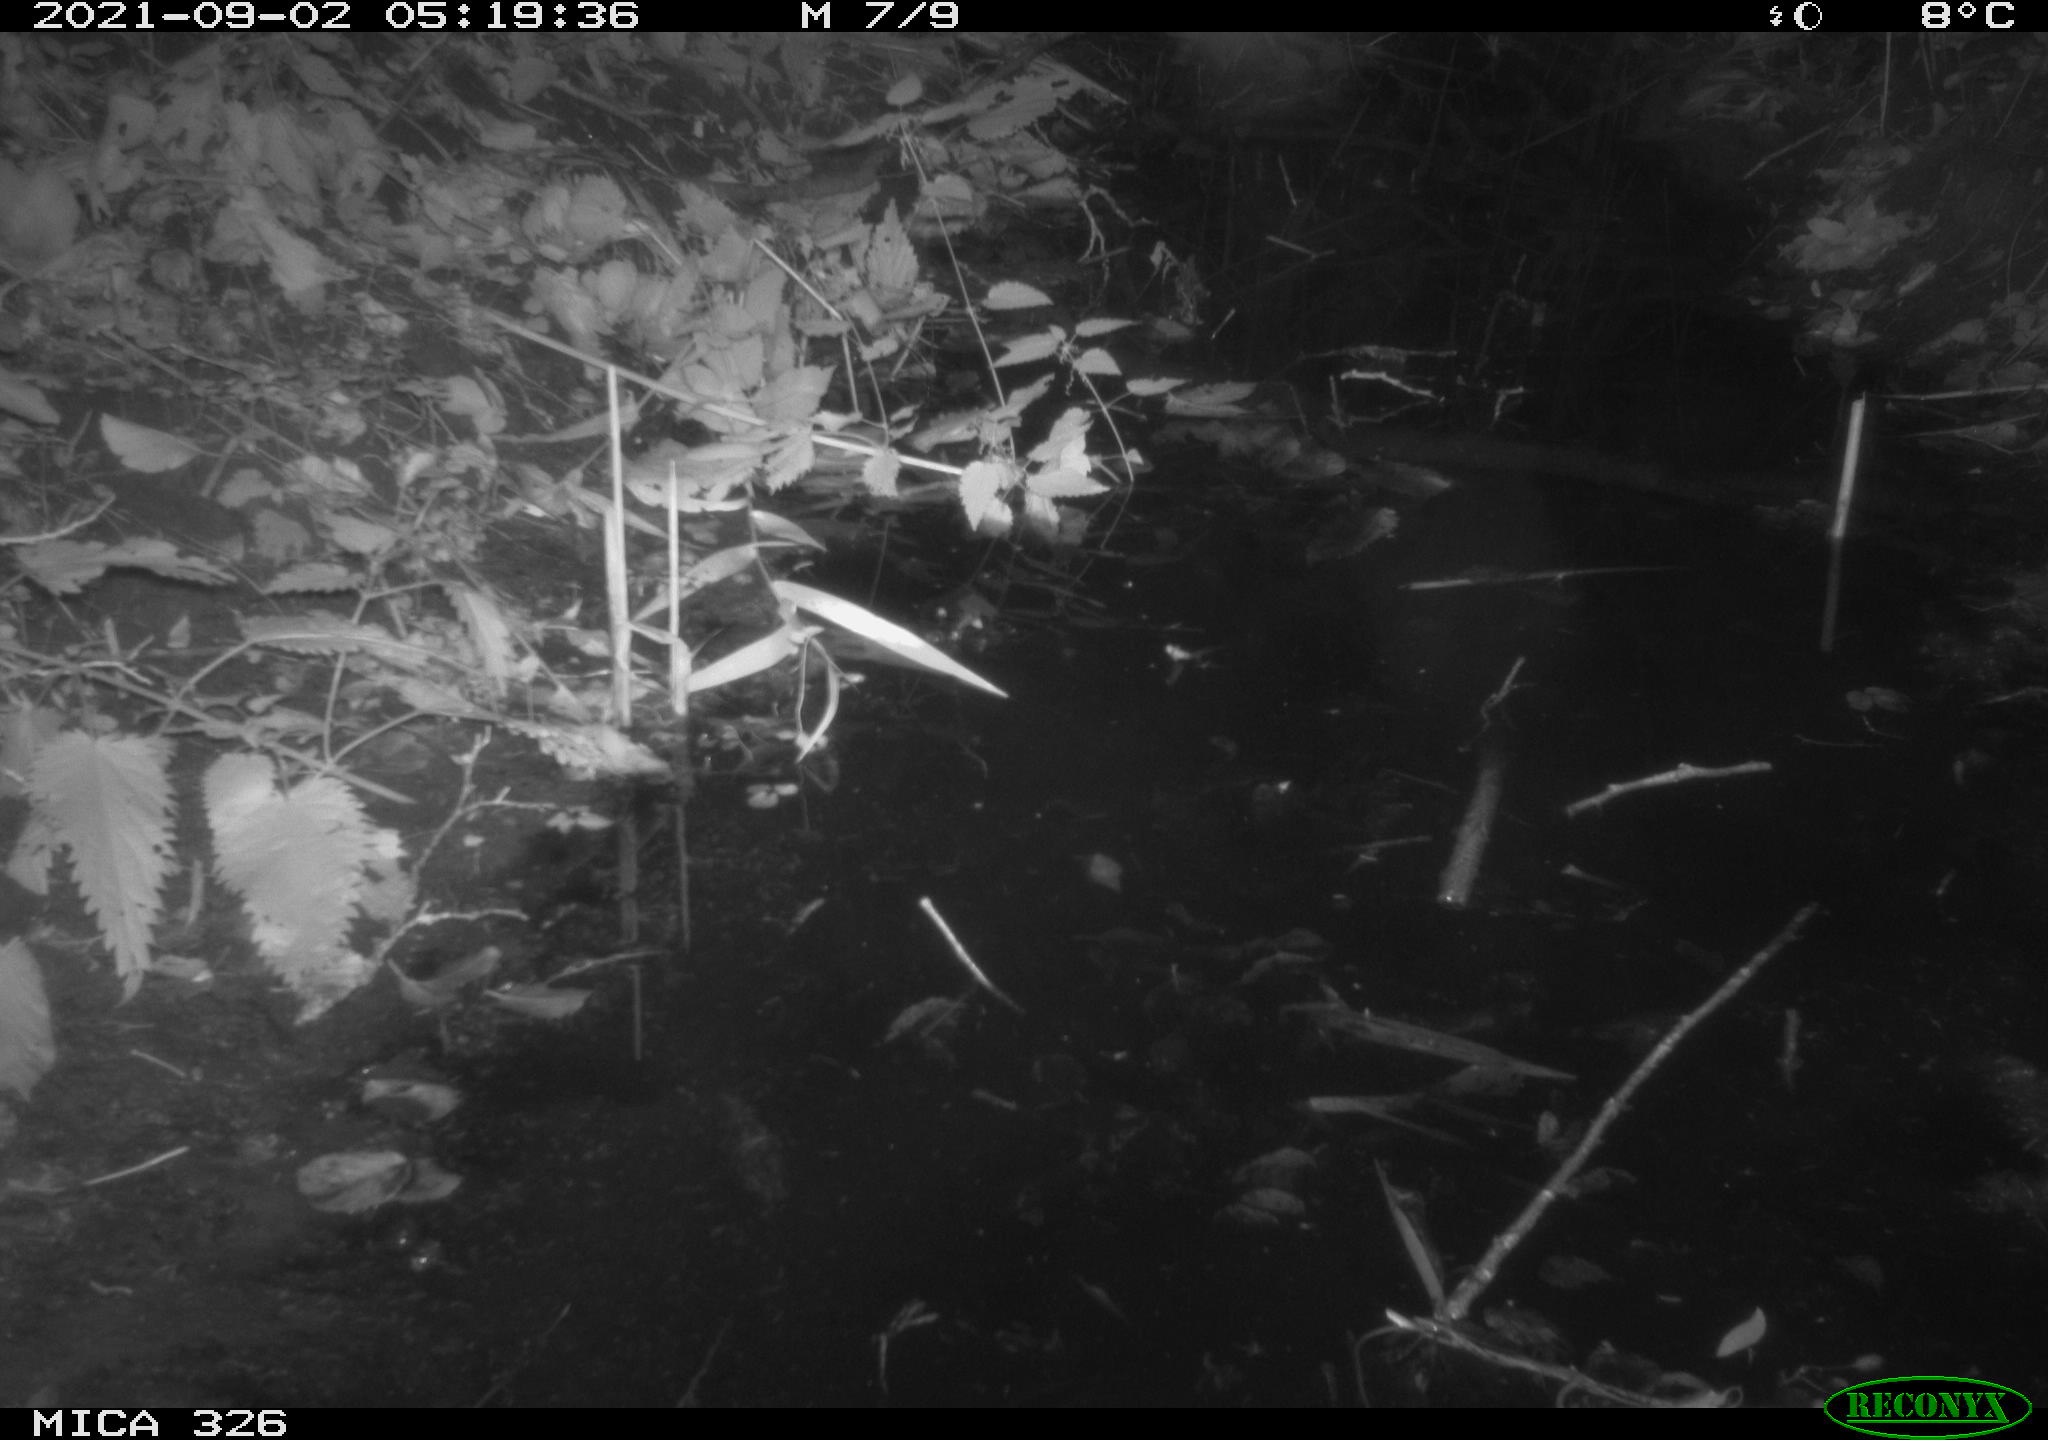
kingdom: Animalia
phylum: Chordata
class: Mammalia
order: Rodentia
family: Muridae
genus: Rattus
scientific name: Rattus norvegicus
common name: Brown rat
